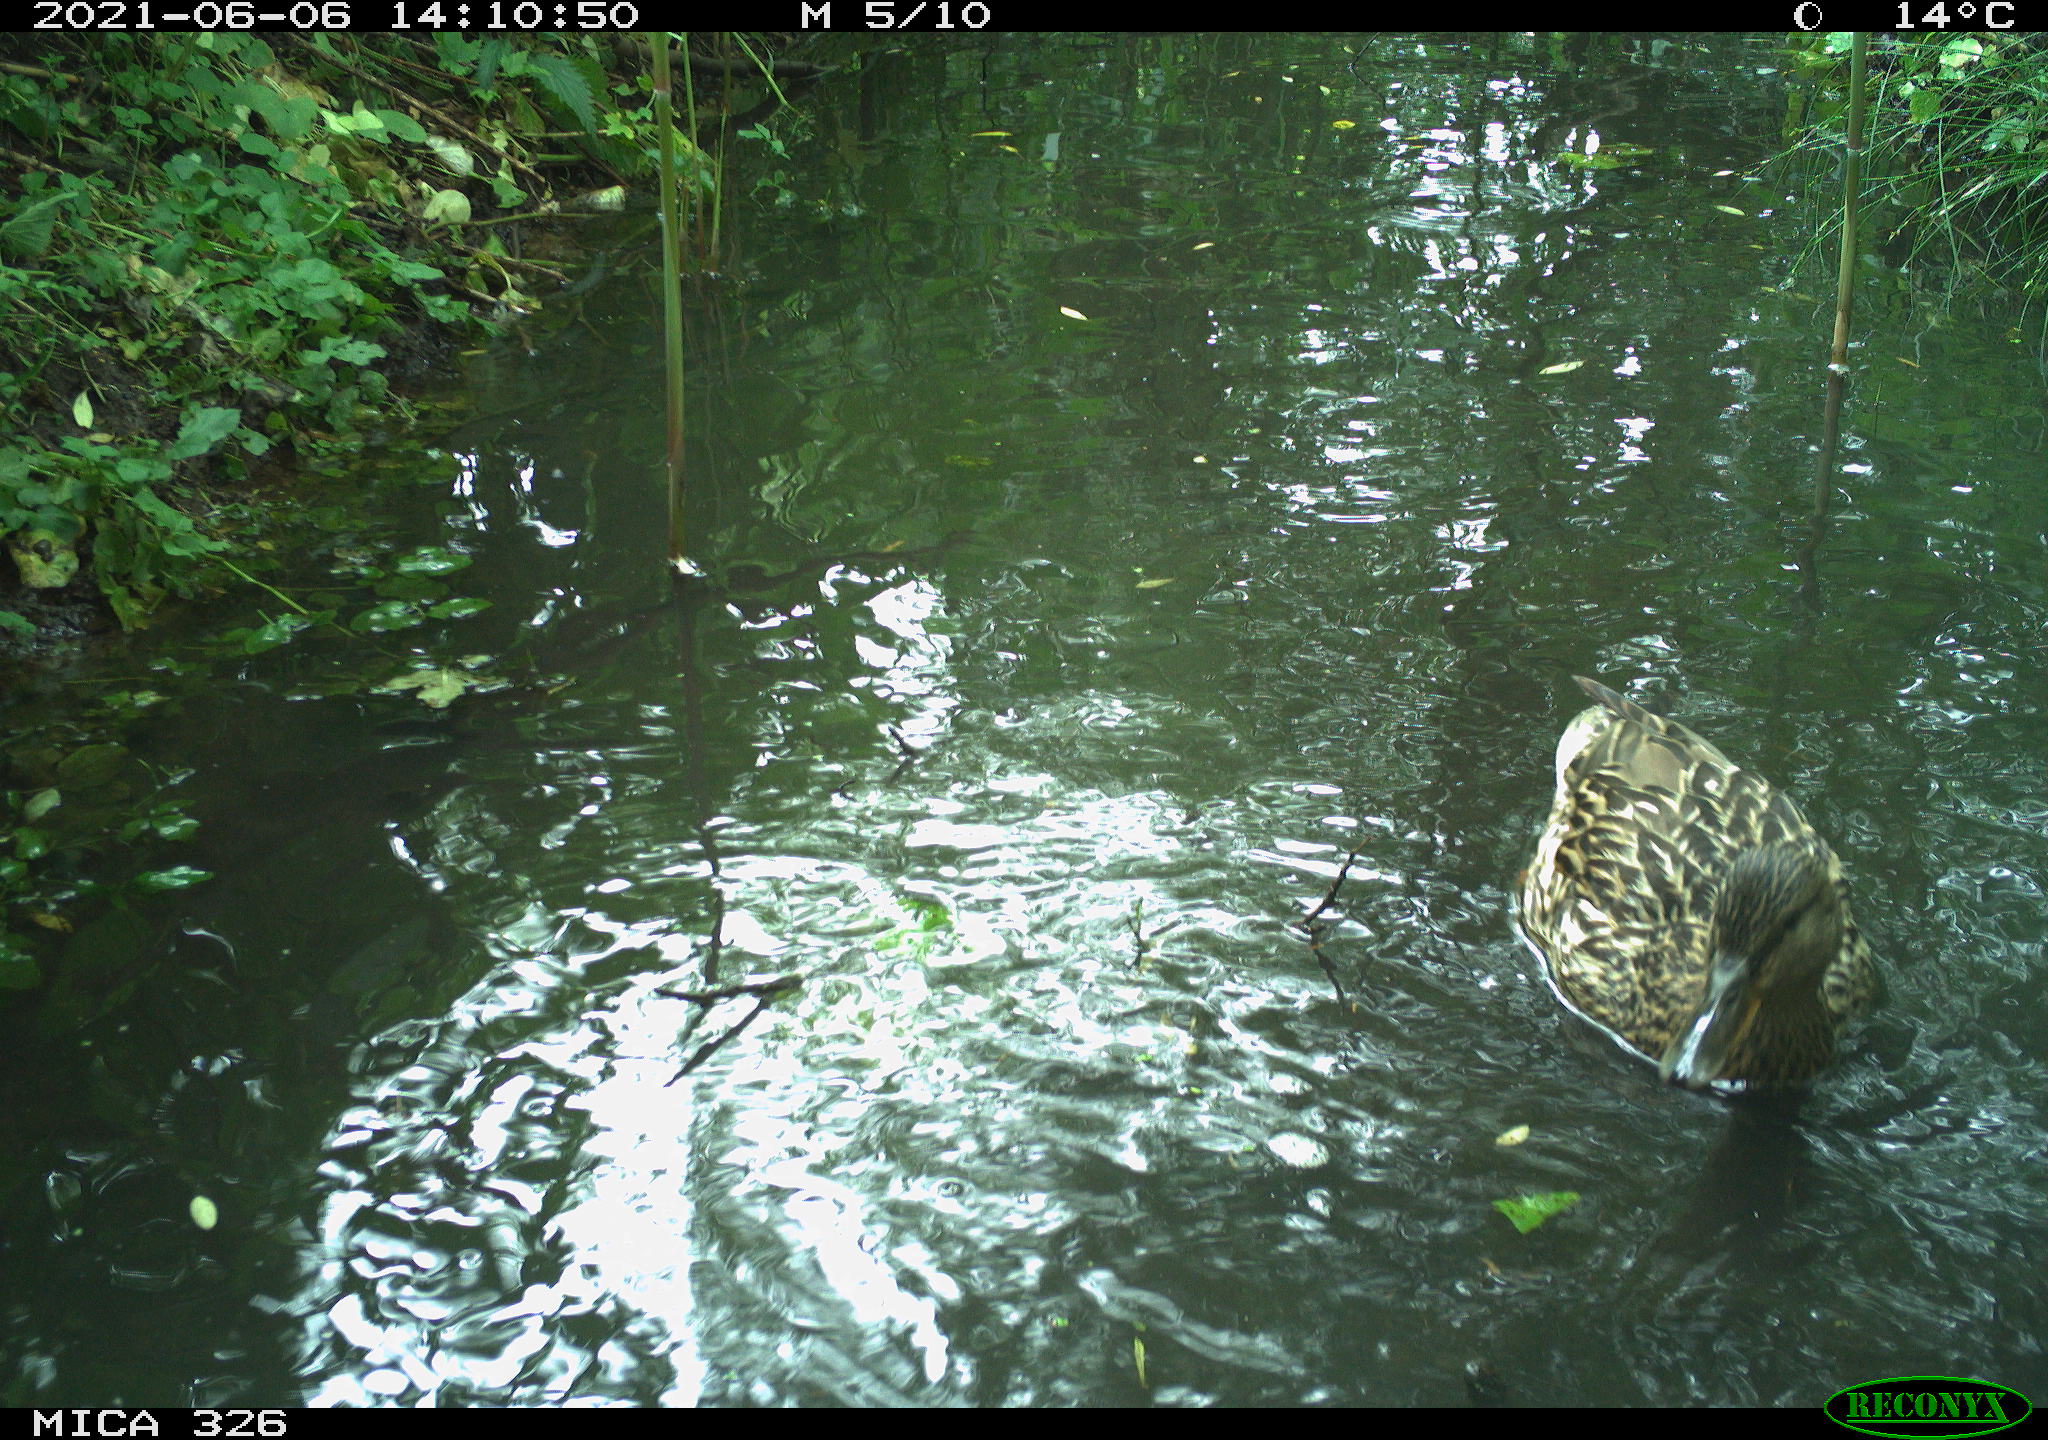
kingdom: Animalia
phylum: Chordata
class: Aves
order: Anseriformes
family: Anatidae
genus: Anas
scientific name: Anas platyrhynchos
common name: Mallard
